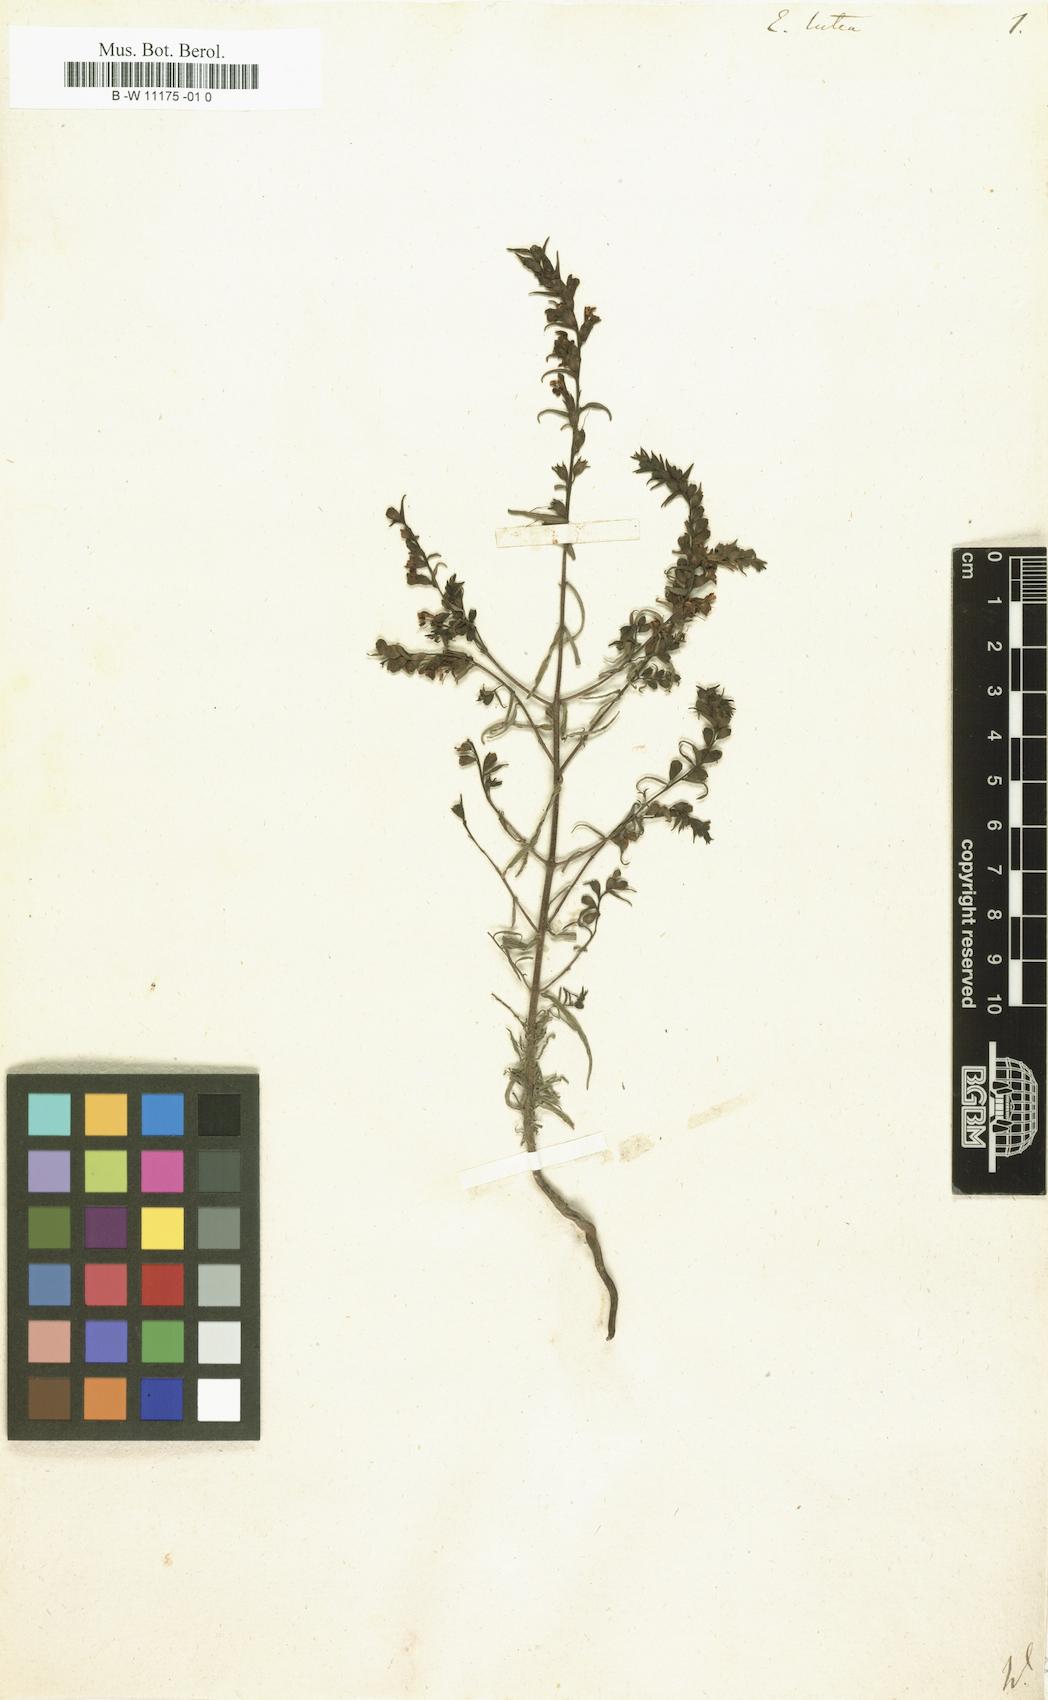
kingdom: Plantae
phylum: Tracheophyta
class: Magnoliopsida
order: Lamiales
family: Orobanchaceae
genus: Odontites
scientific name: Odontites
